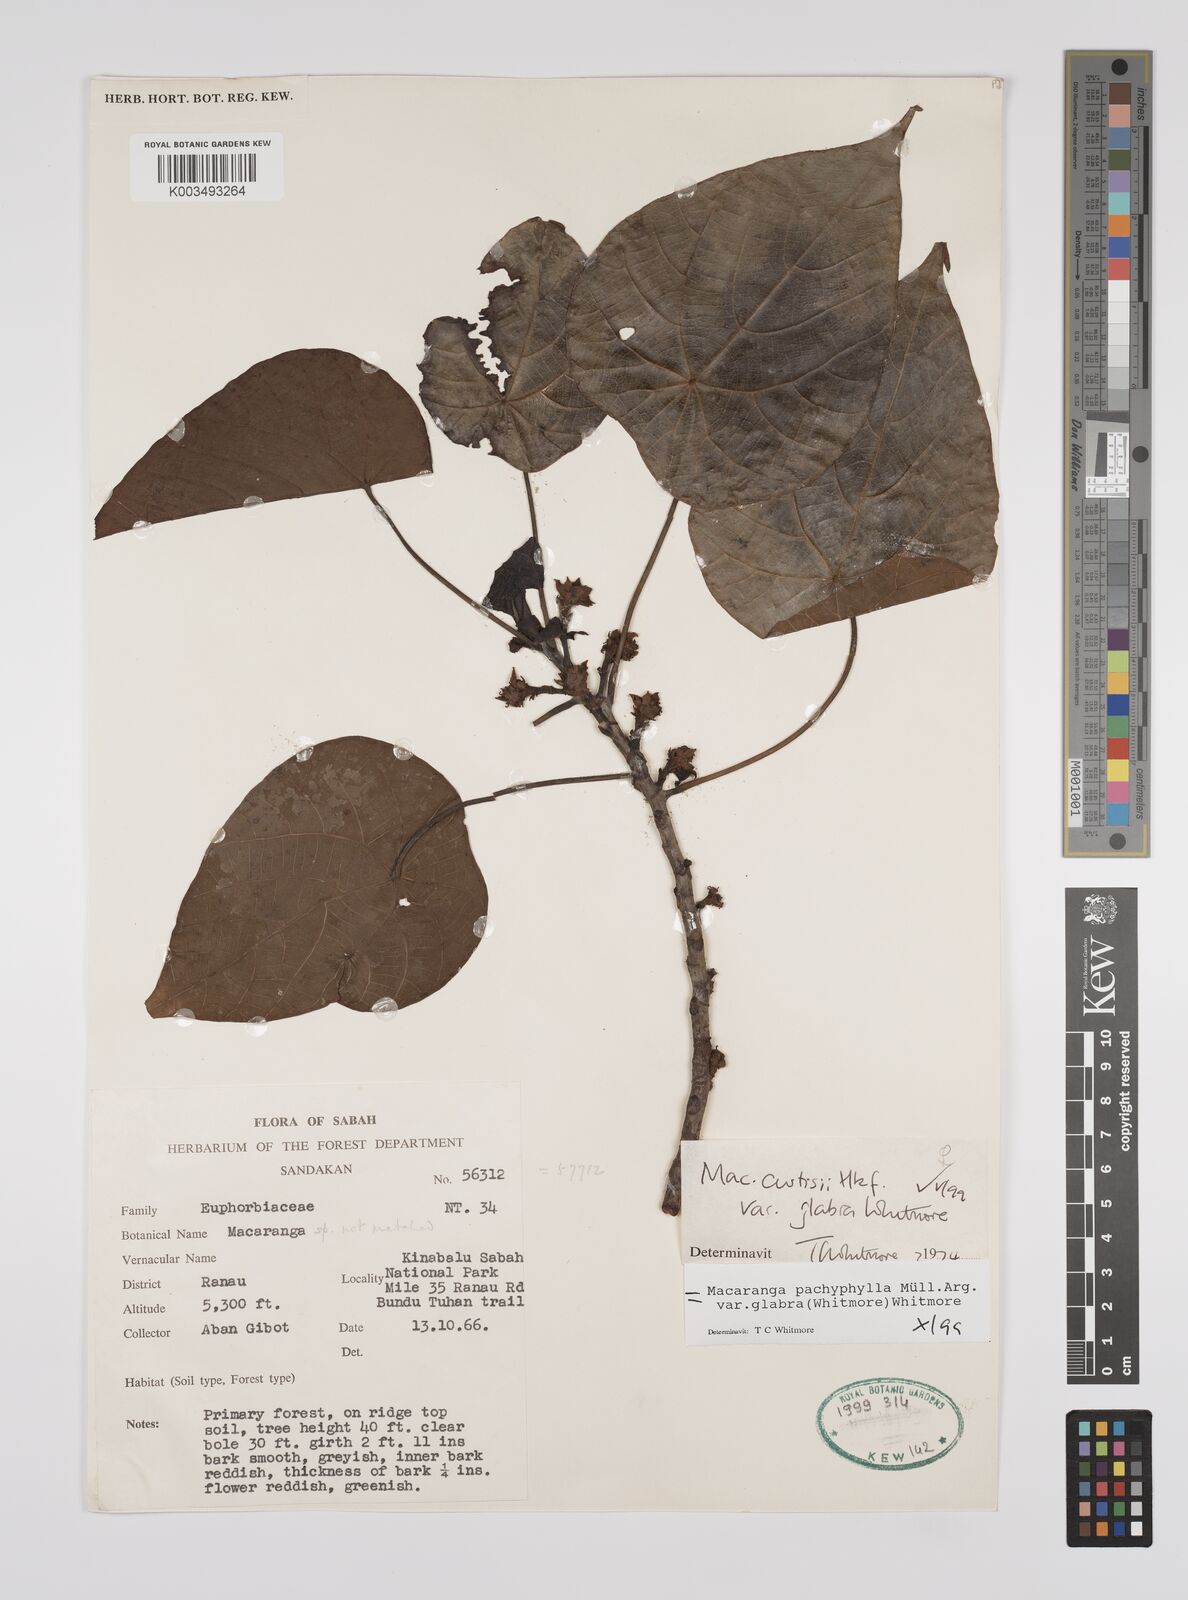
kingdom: Plantae
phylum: Tracheophyta
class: Magnoliopsida
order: Malpighiales
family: Euphorbiaceae
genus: Macaranga
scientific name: Macaranga pachyphylla
